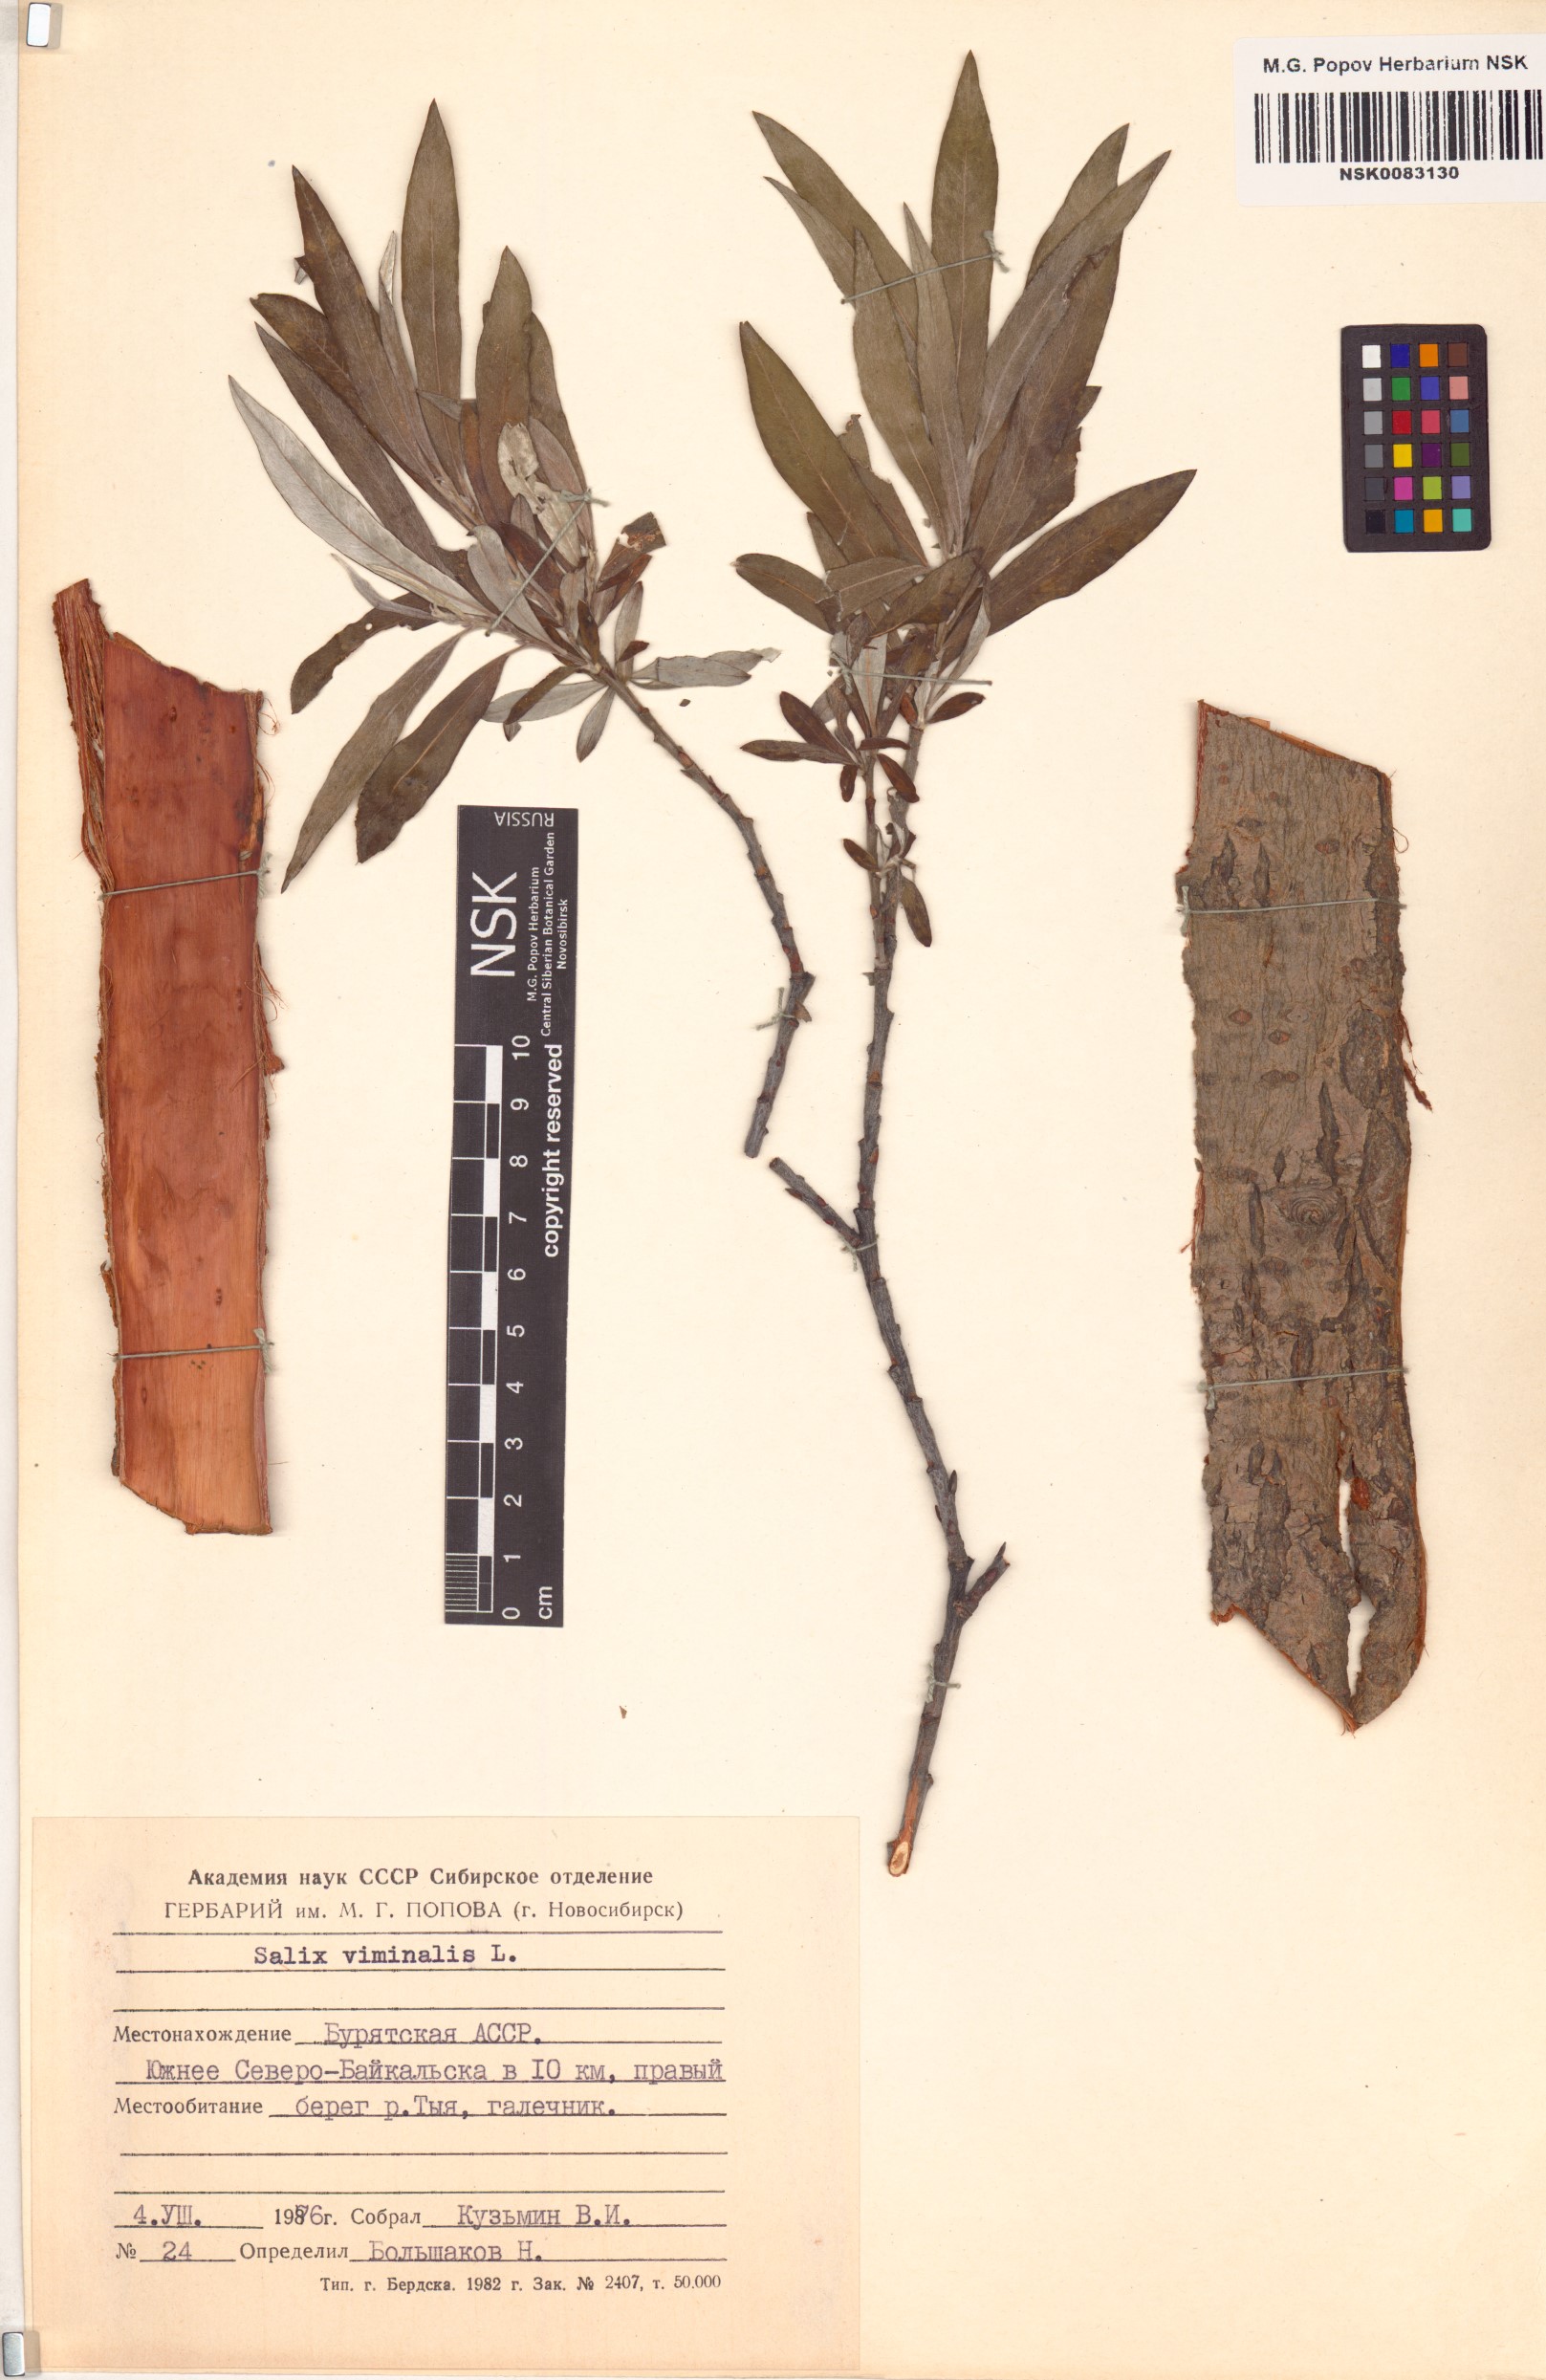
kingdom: Plantae
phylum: Tracheophyta
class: Magnoliopsida
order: Malpighiales
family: Salicaceae
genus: Salix
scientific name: Salix viminalis
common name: Osier
